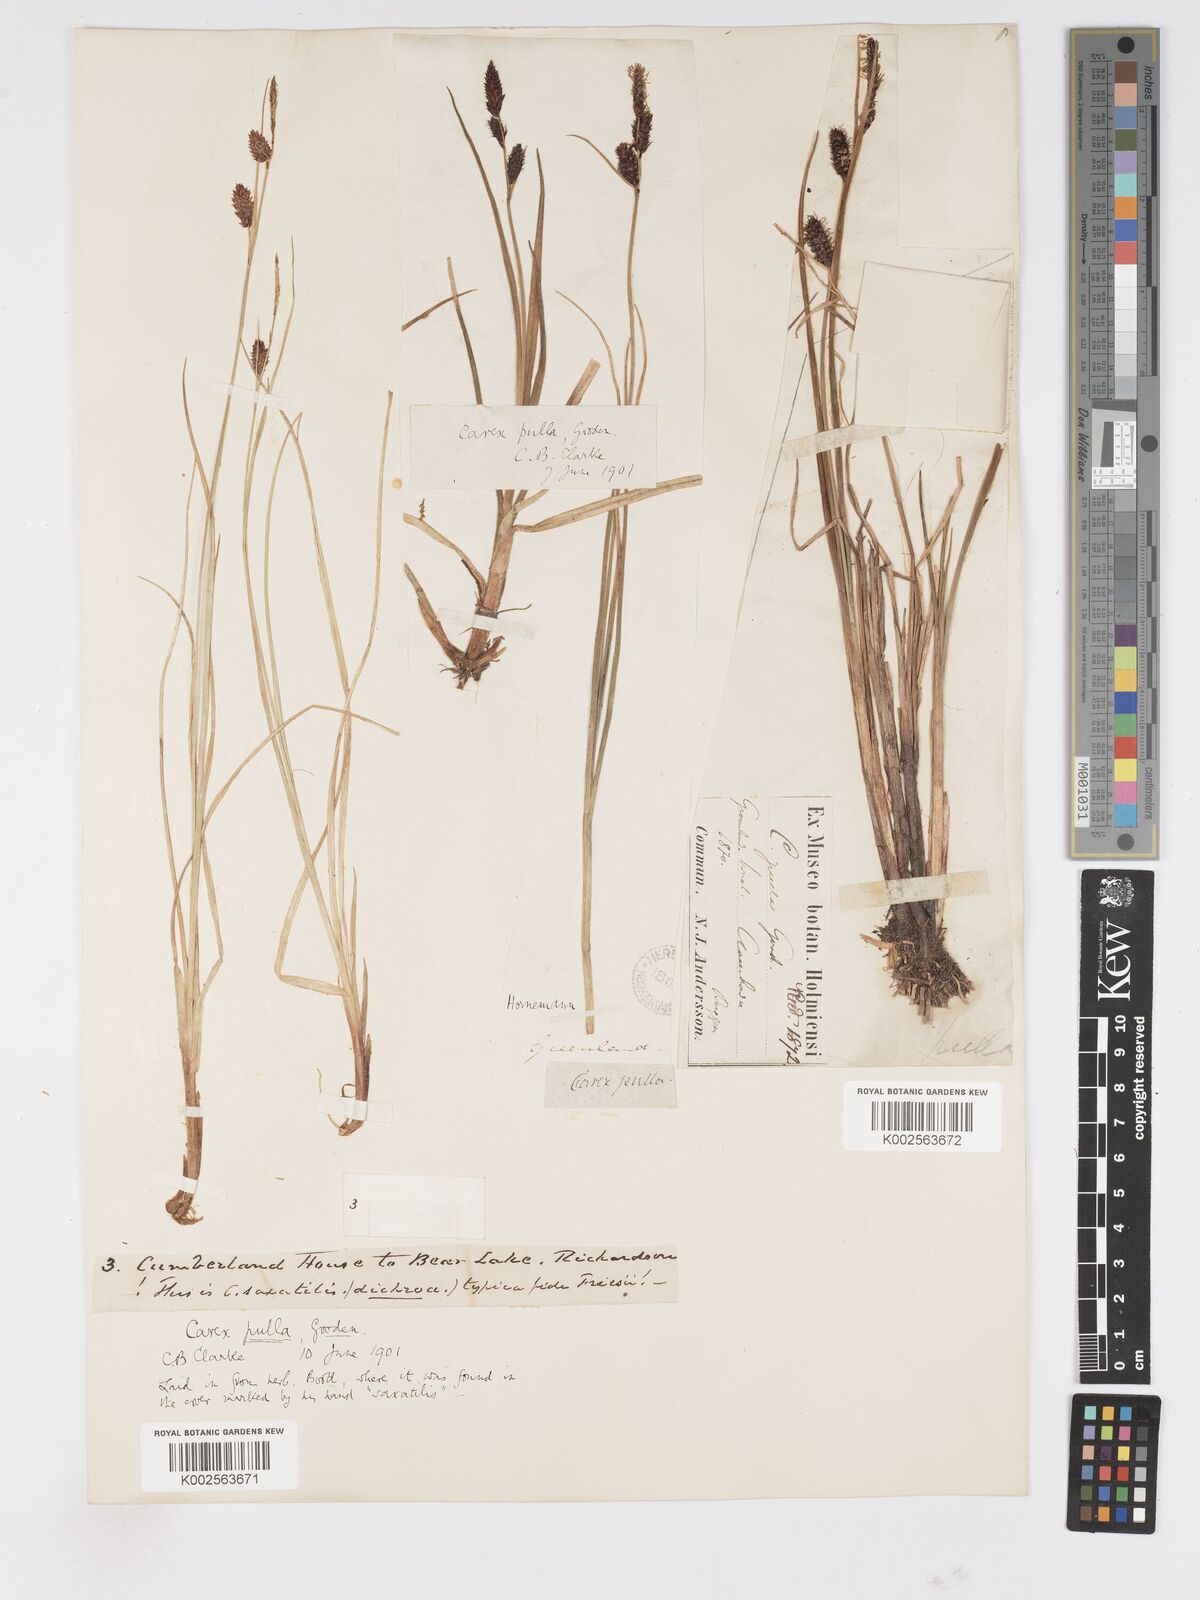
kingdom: Plantae
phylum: Tracheophyta
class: Liliopsida
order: Poales
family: Cyperaceae
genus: Carex
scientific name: Carex saxatilis
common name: Russet sedge
